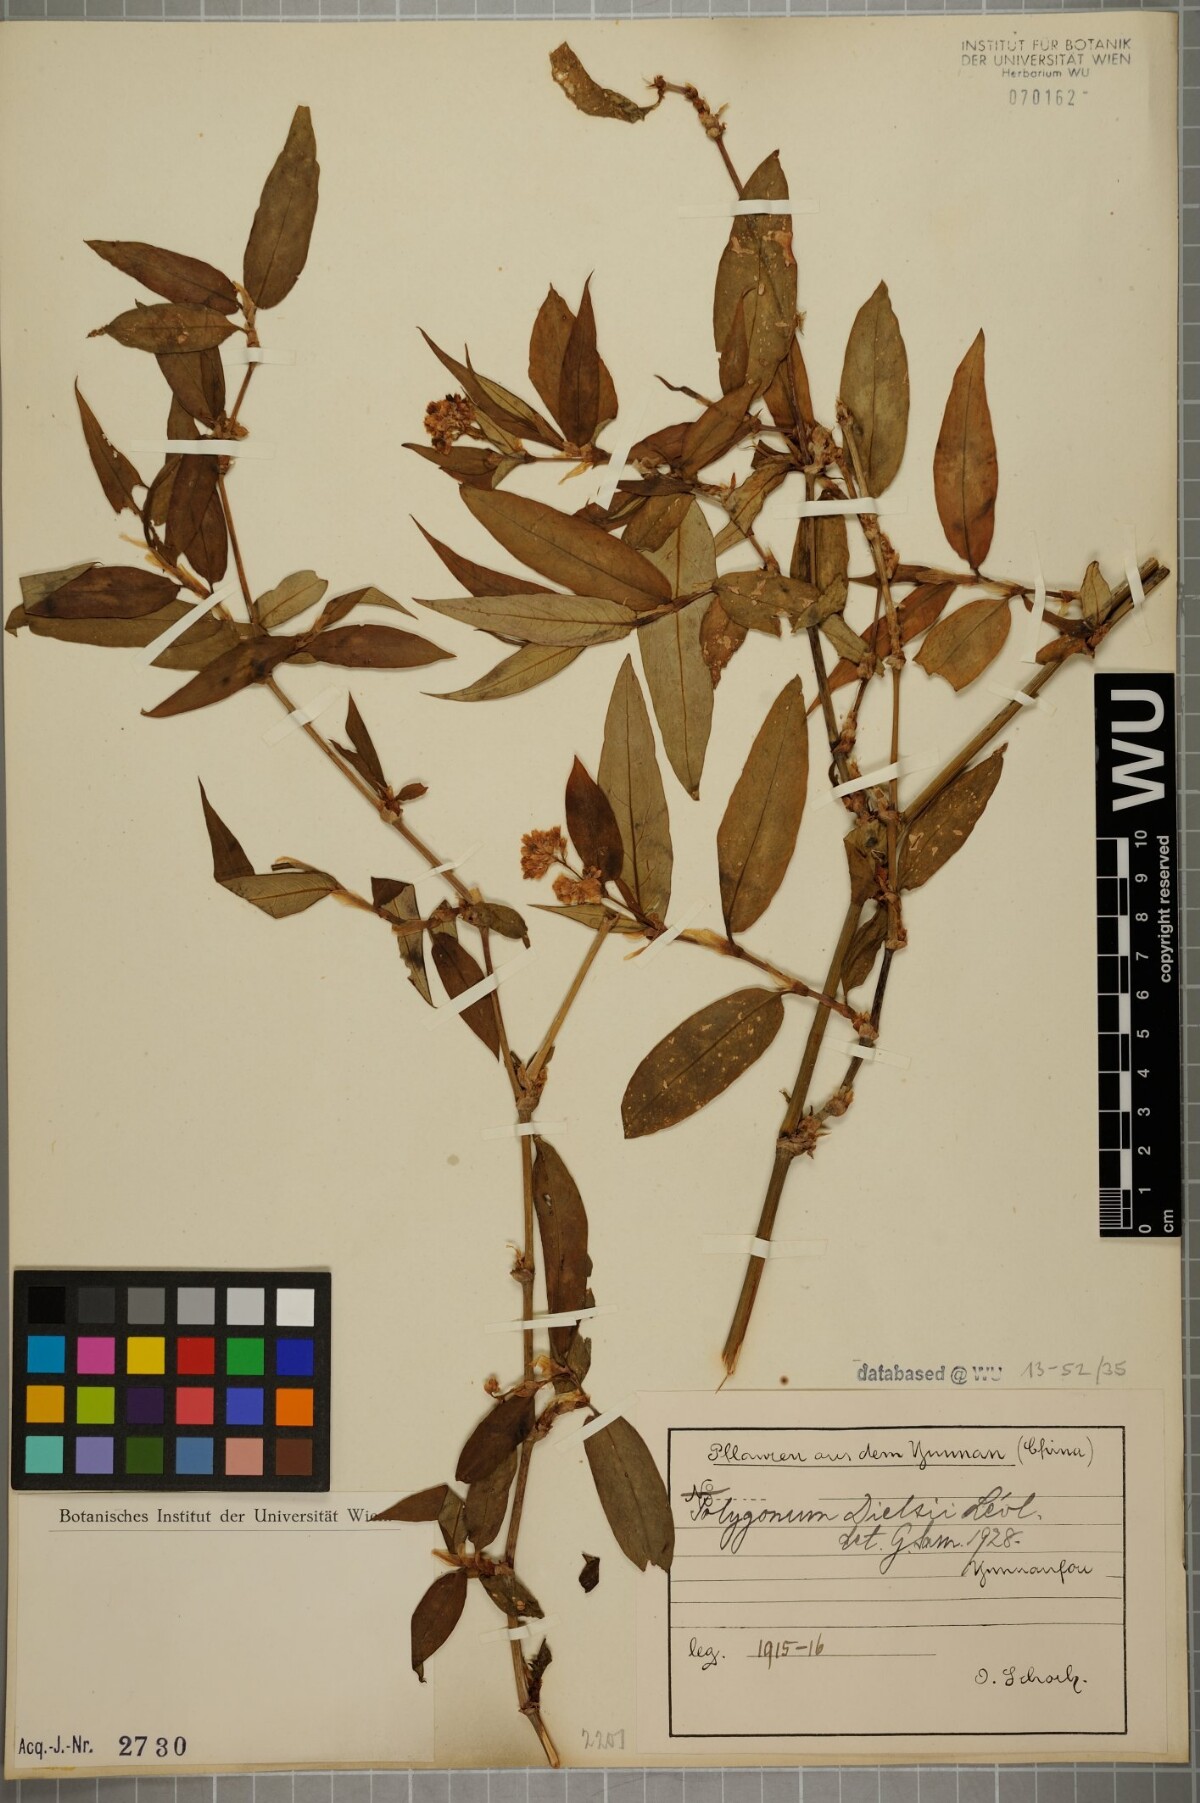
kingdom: Plantae
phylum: Tracheophyta
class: Magnoliopsida
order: Caryophyllales
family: Polygonaceae
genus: Persicaria
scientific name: Persicaria paradoxa
